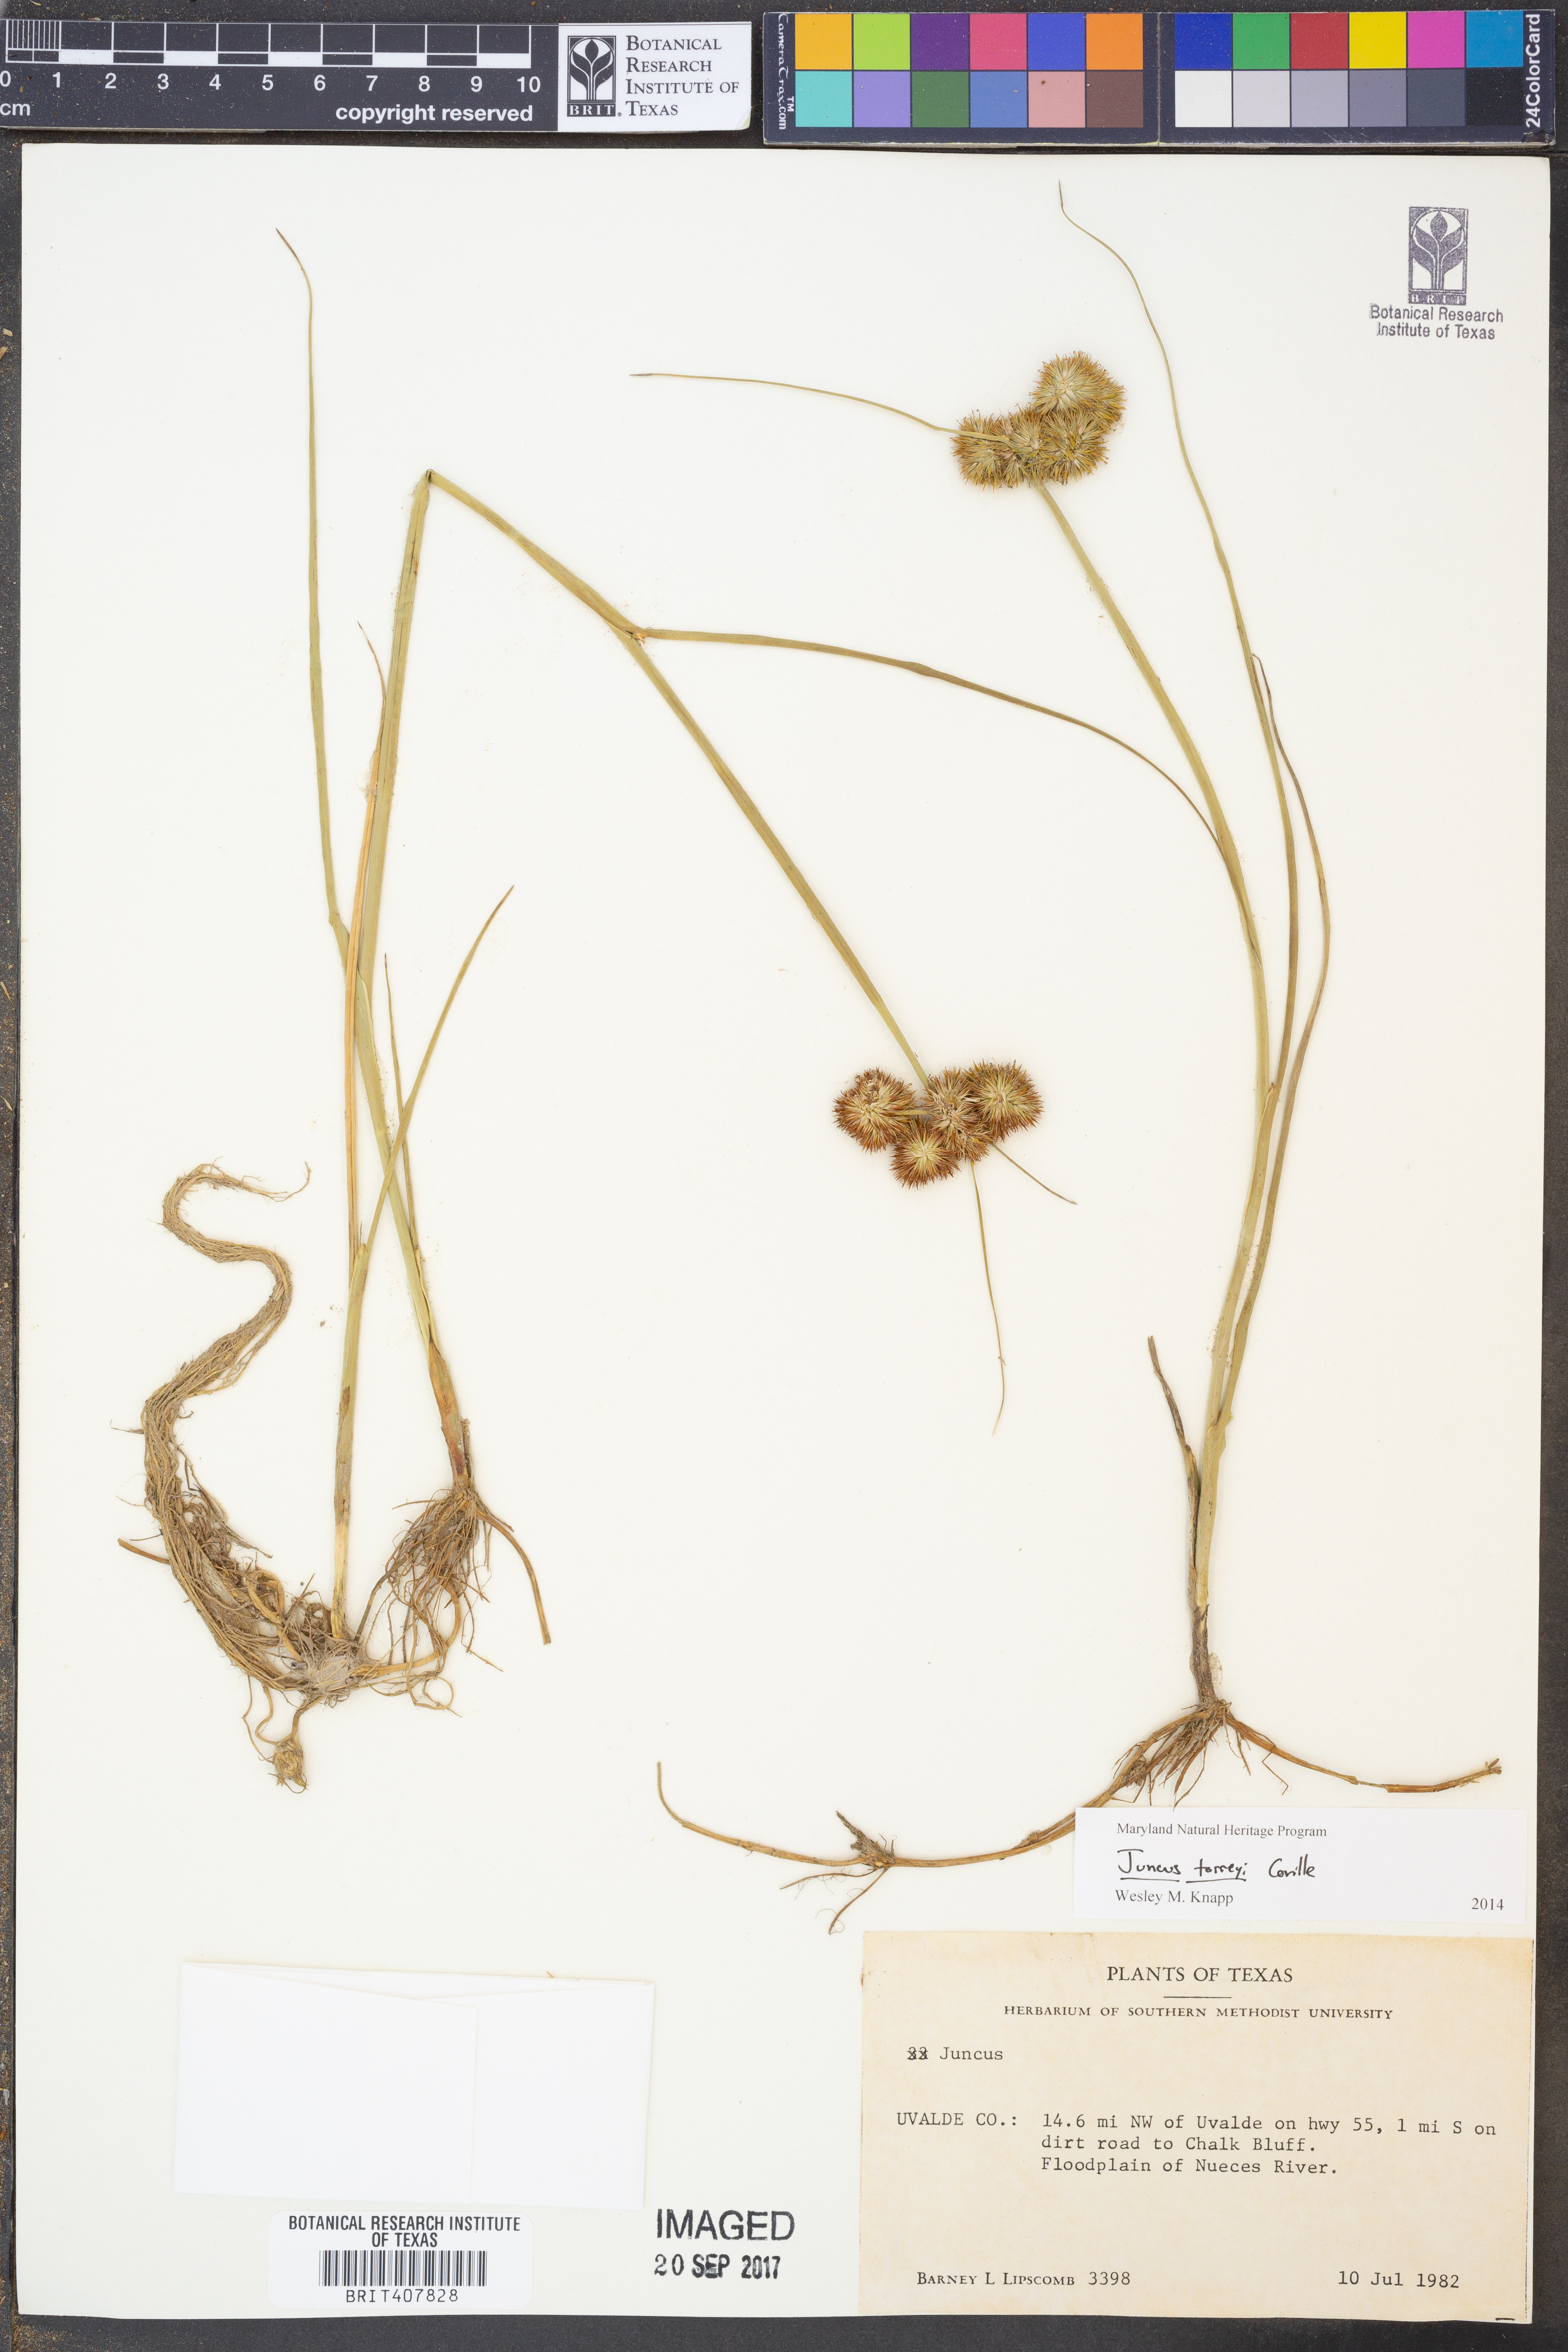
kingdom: Plantae
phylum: Tracheophyta
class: Liliopsida
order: Poales
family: Juncaceae
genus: Juncus
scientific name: Juncus torreyi
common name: Torrey's rush
